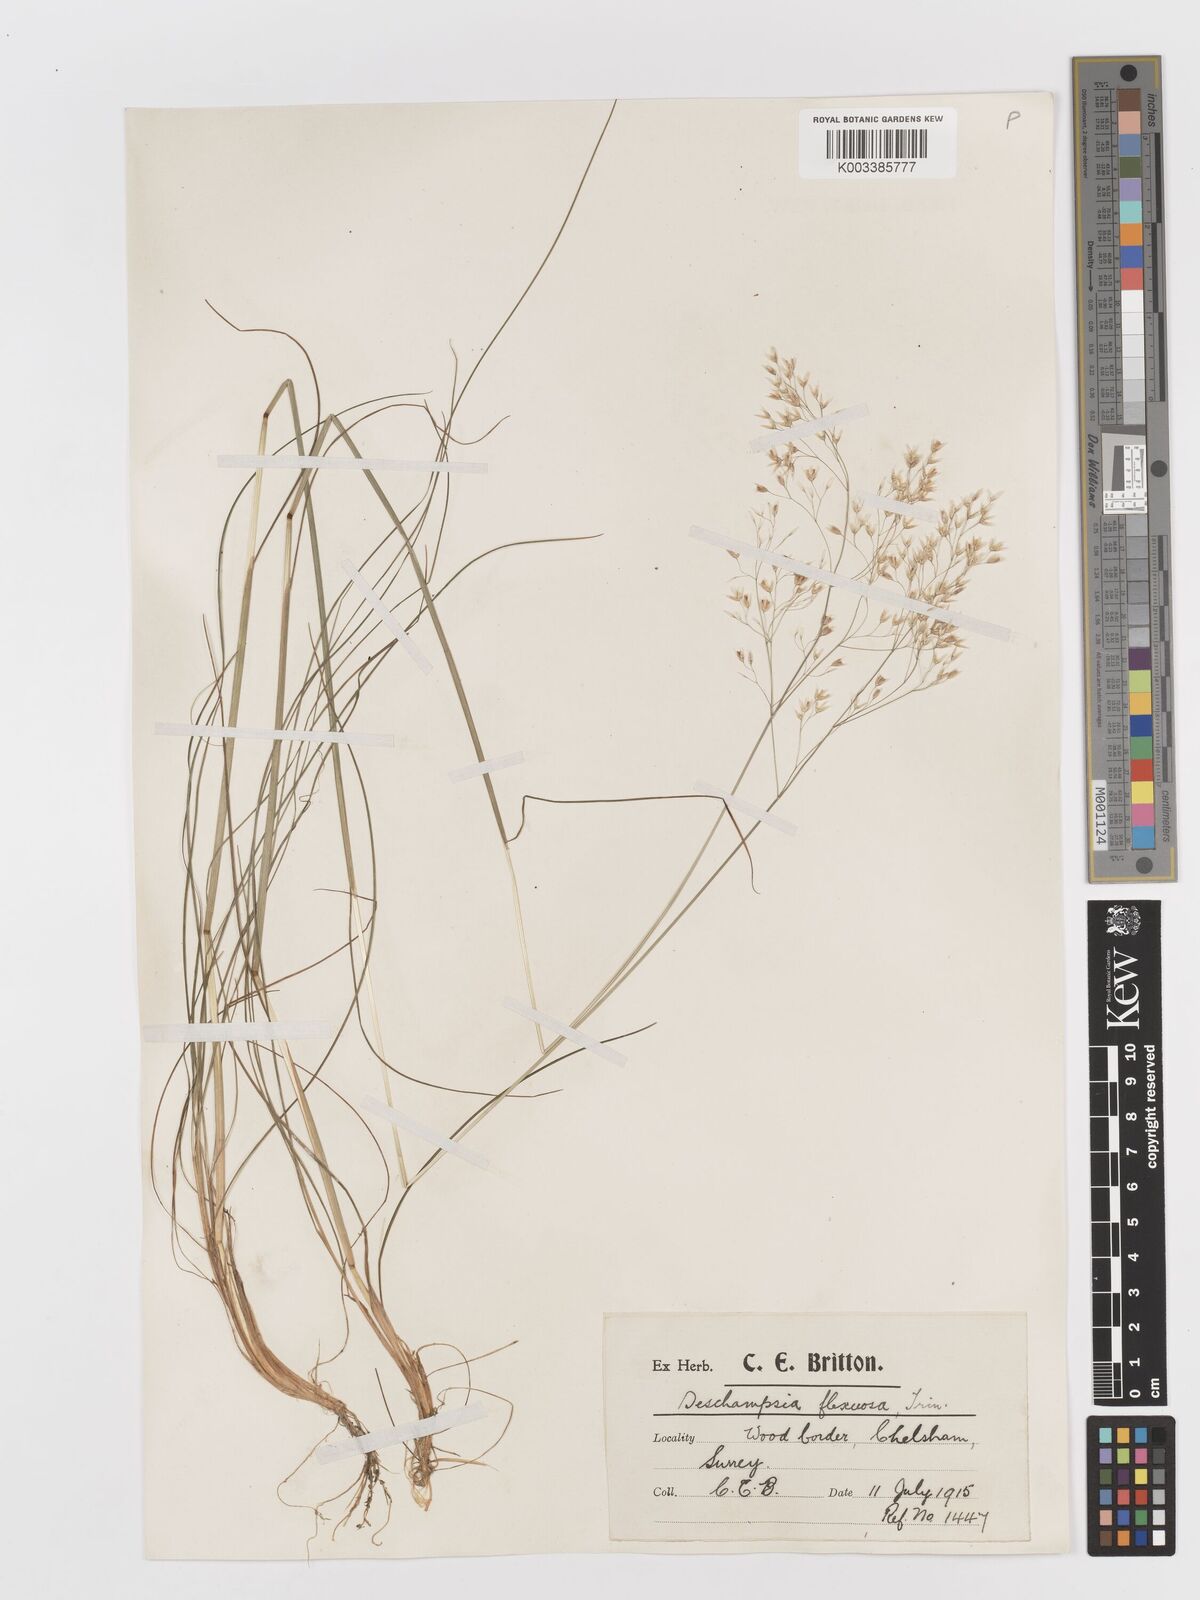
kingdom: Plantae
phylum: Tracheophyta
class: Liliopsida
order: Poales
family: Poaceae
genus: Avenella
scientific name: Avenella flexuosa
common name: Wavy hairgrass
